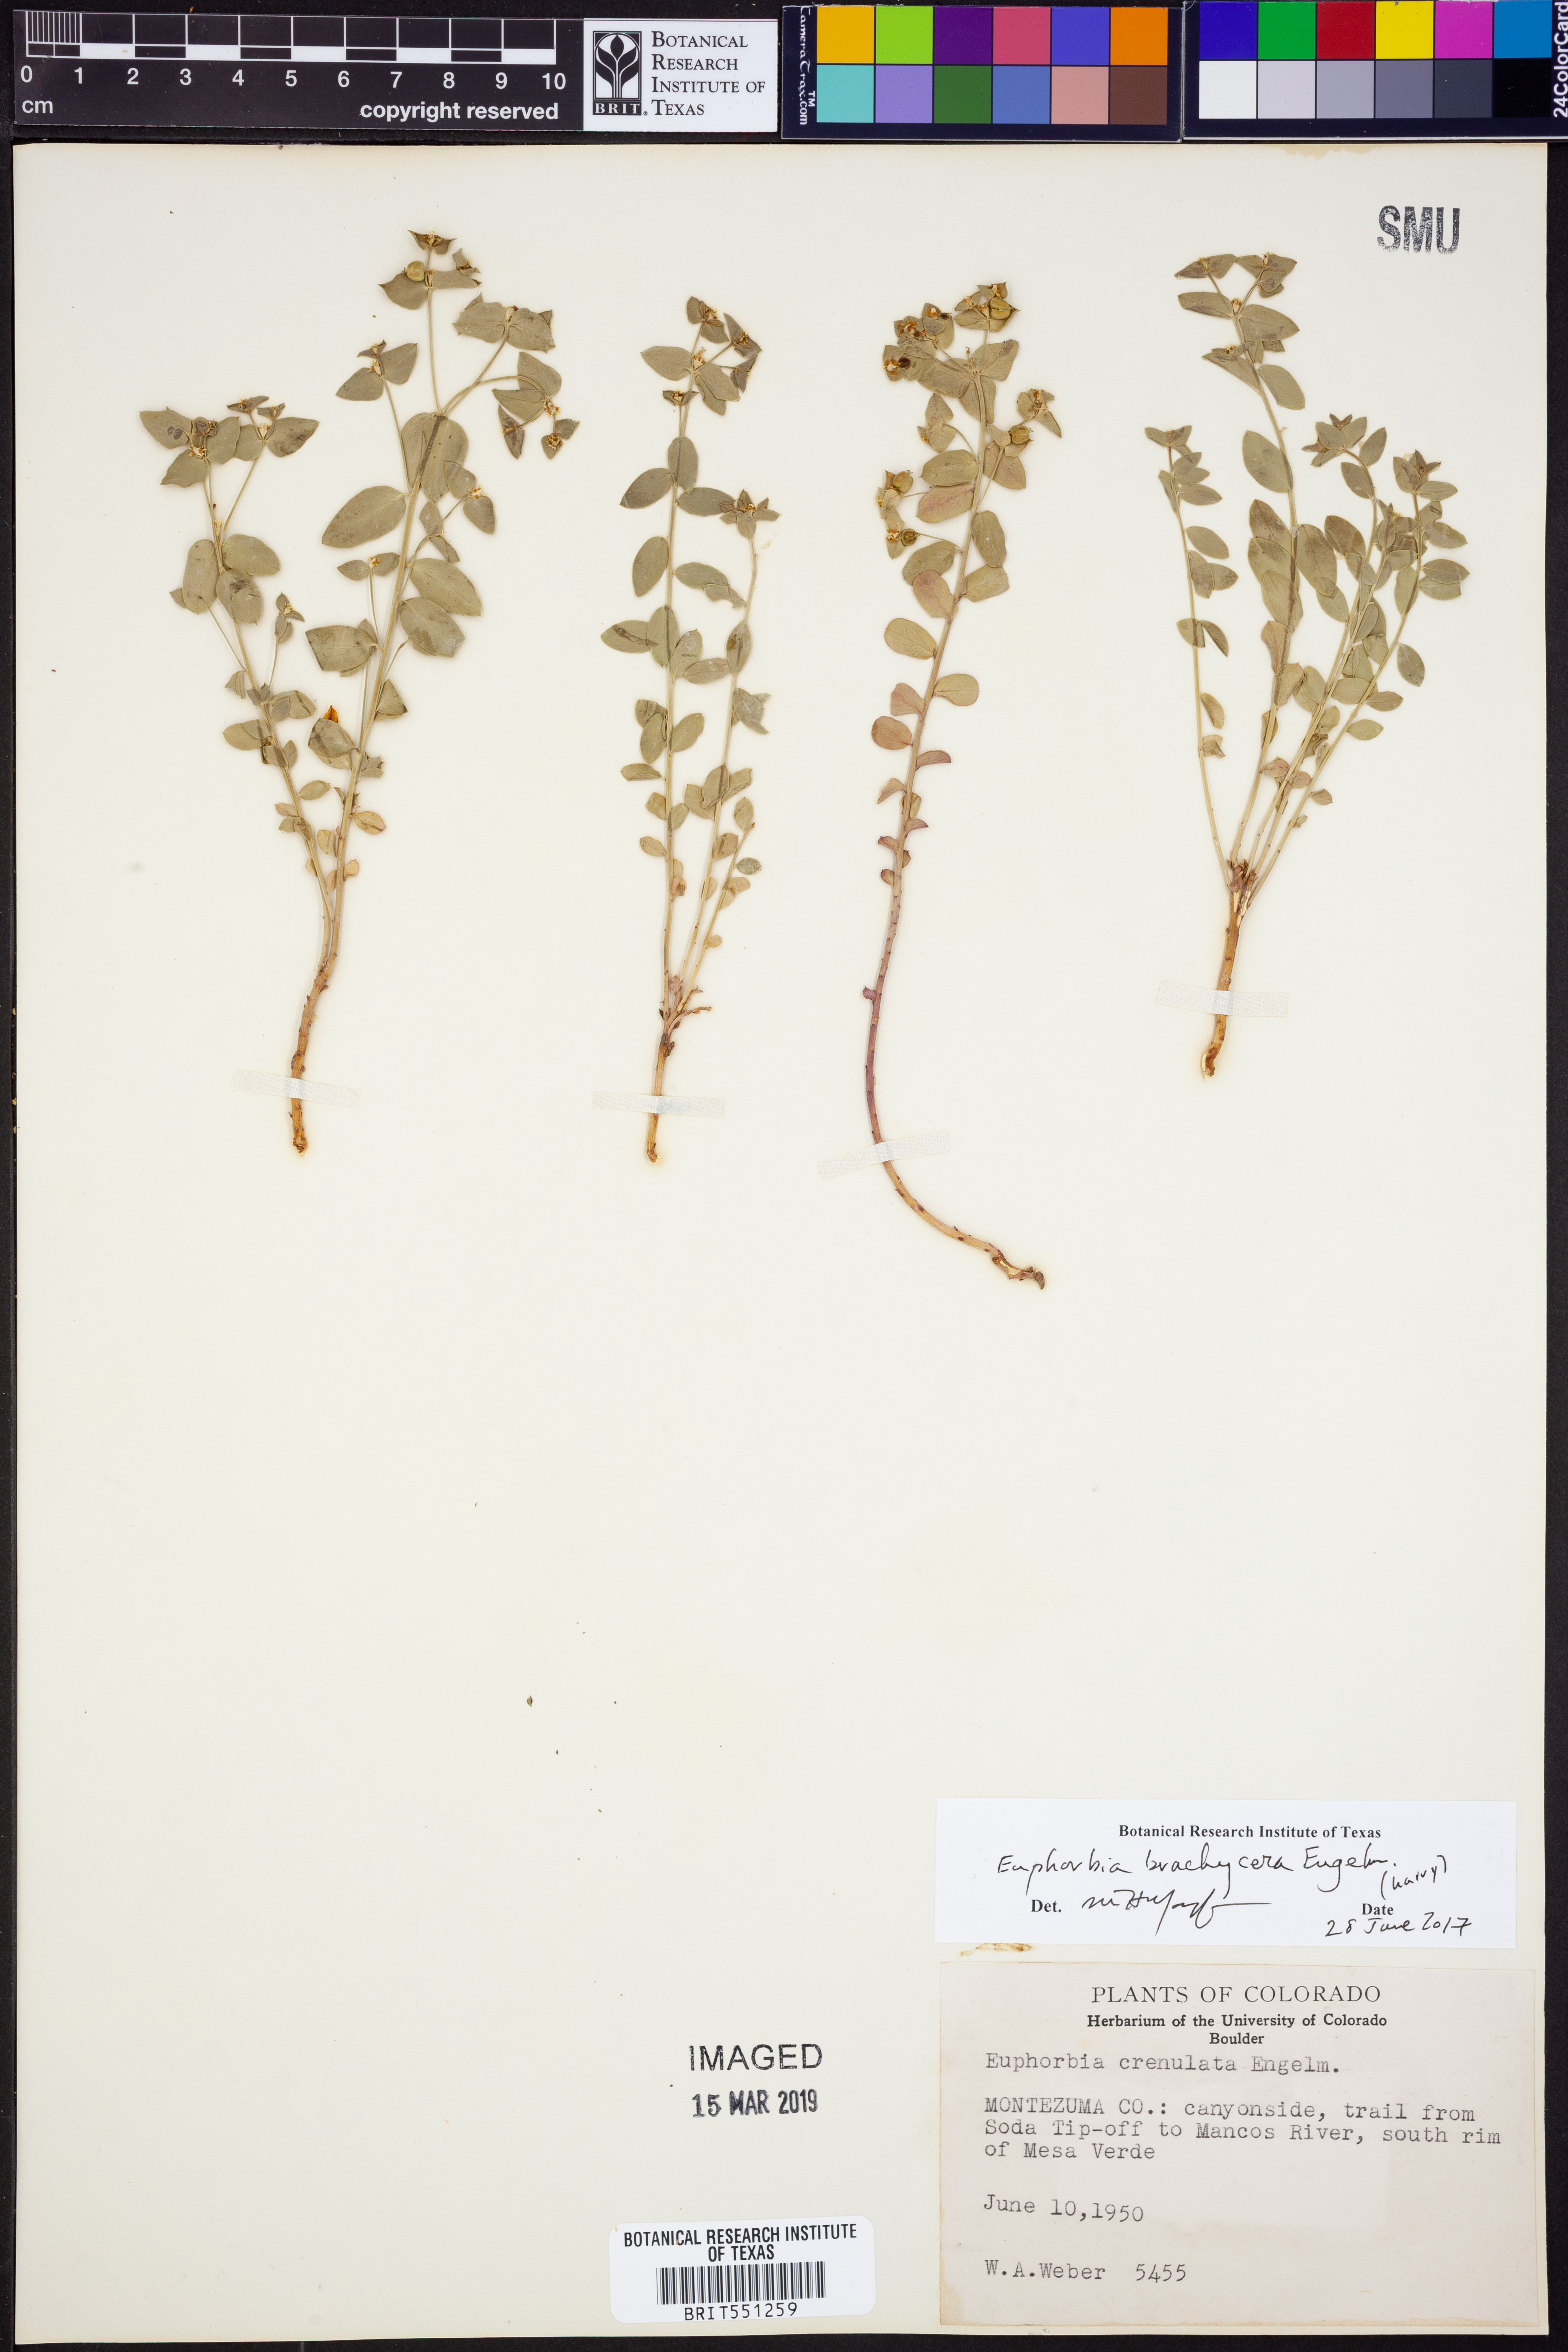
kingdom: Plantae
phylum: Tracheophyta
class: Magnoliopsida
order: Malpighiales
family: Euphorbiaceae
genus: Euphorbia
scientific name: Euphorbia brachycera
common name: Shorthorn spurge
